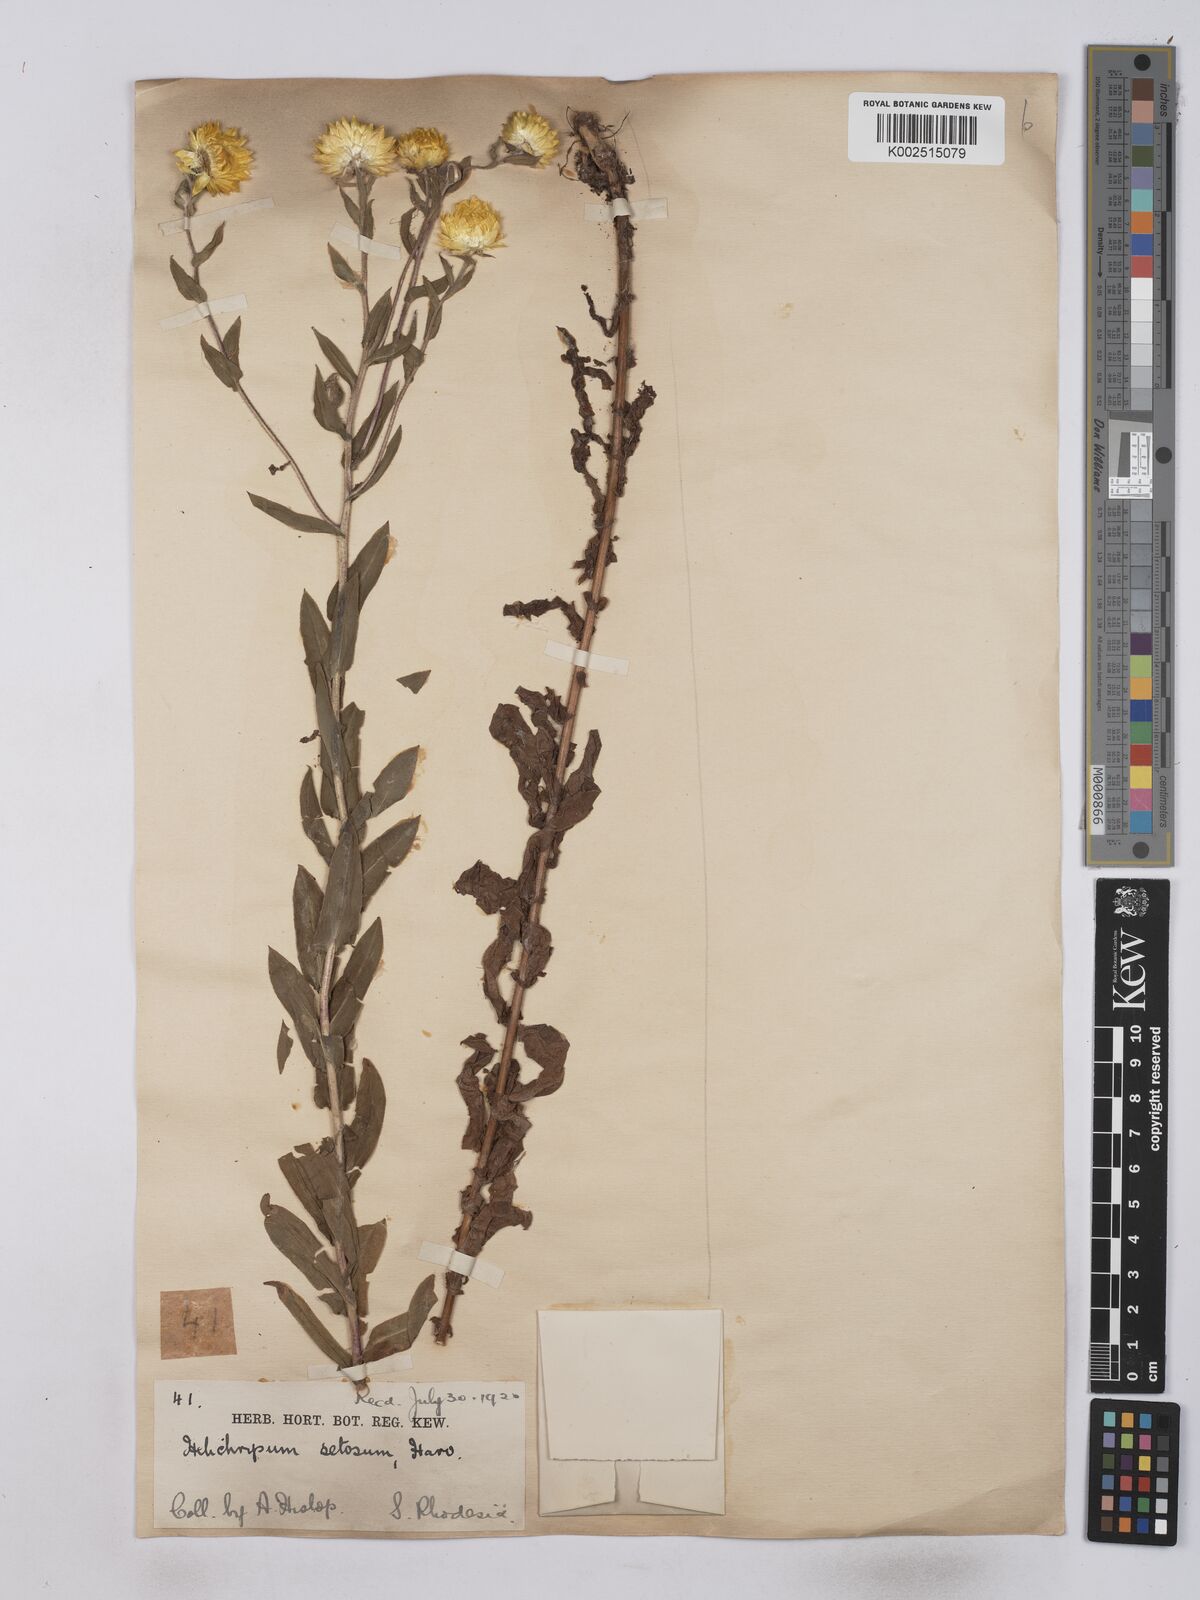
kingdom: Plantae
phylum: Tracheophyta
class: Magnoliopsida
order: Asterales
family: Asteraceae
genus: Helichrysum
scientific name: Helichrysum setosum
